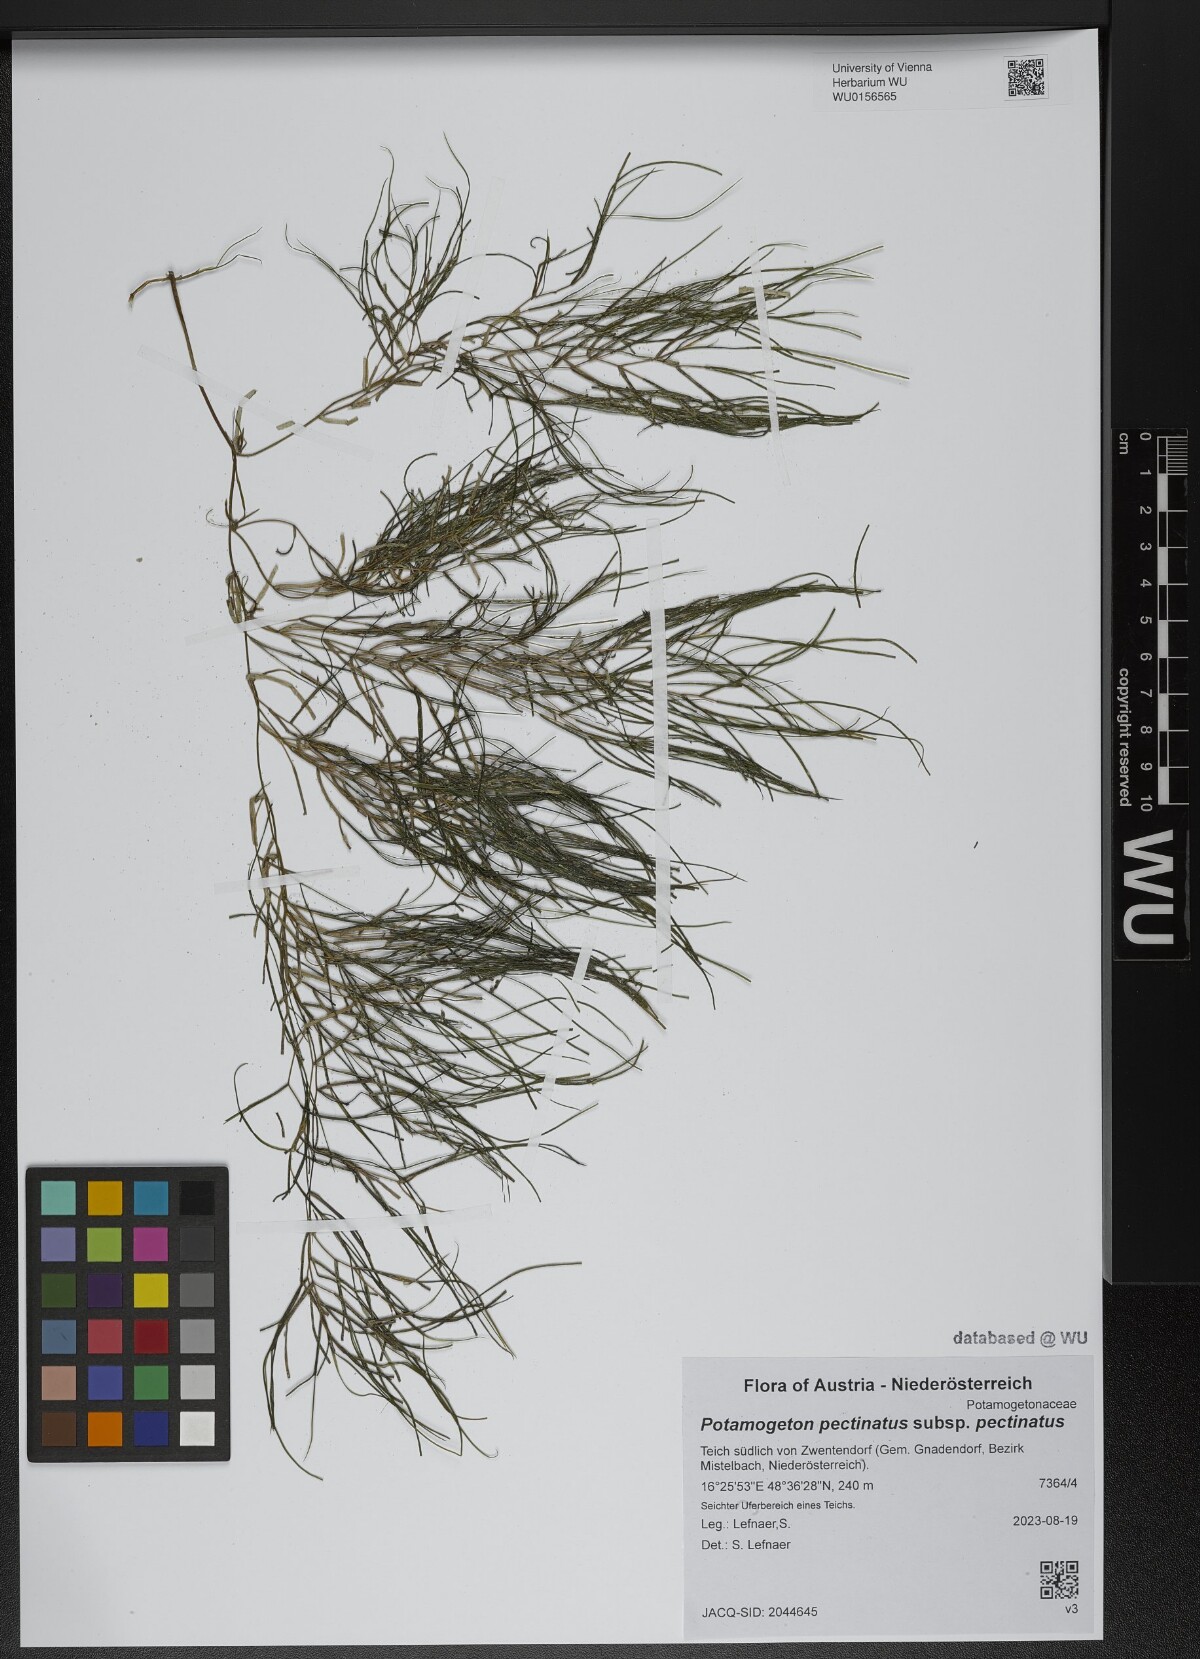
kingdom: Plantae
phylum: Tracheophyta
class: Liliopsida
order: Alismatales
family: Potamogetonaceae
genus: Stuckenia
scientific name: Stuckenia pectinata
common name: Sago pondweed
